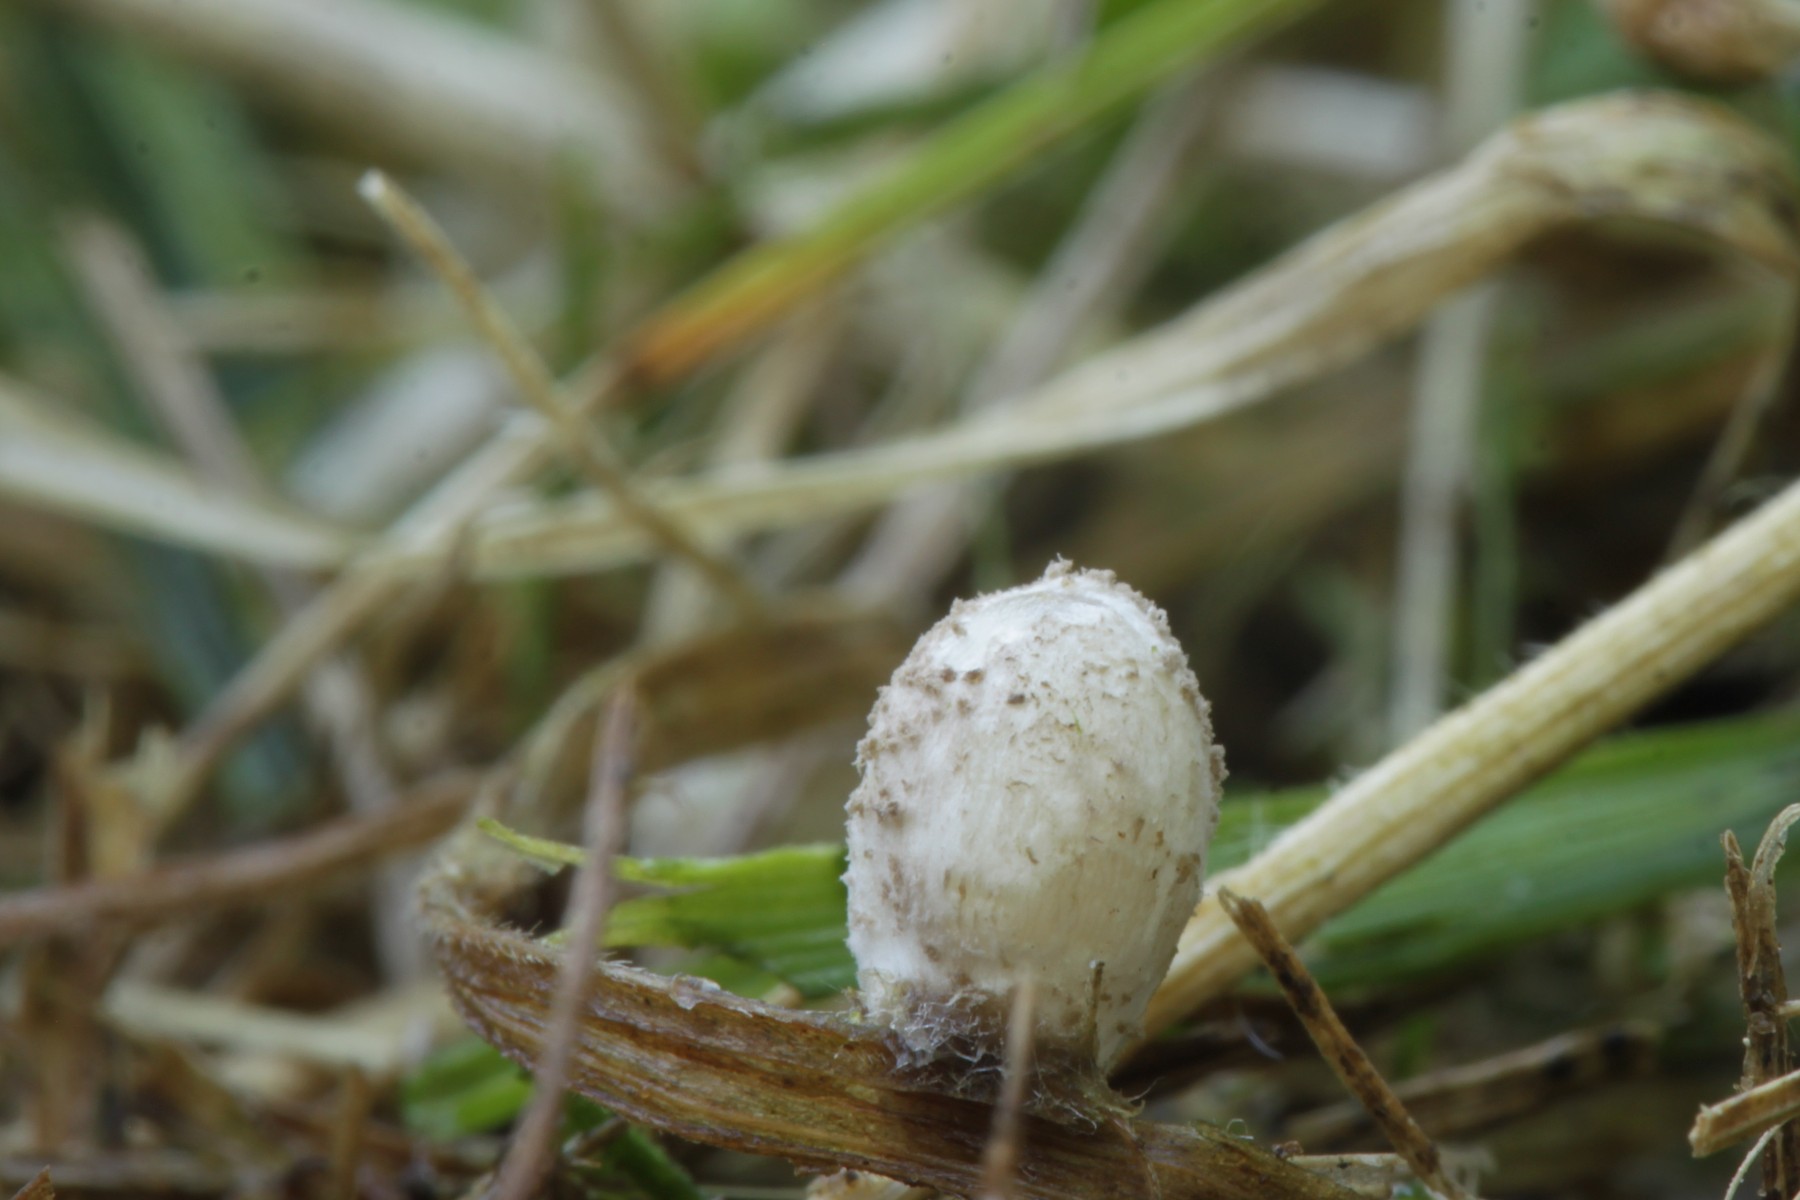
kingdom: Fungi
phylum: Basidiomycota
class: Agaricomycetes
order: Agaricales
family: Psathyrellaceae
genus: Coprinopsis
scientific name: Coprinopsis tigrinella
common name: brunfnugget blækhat
